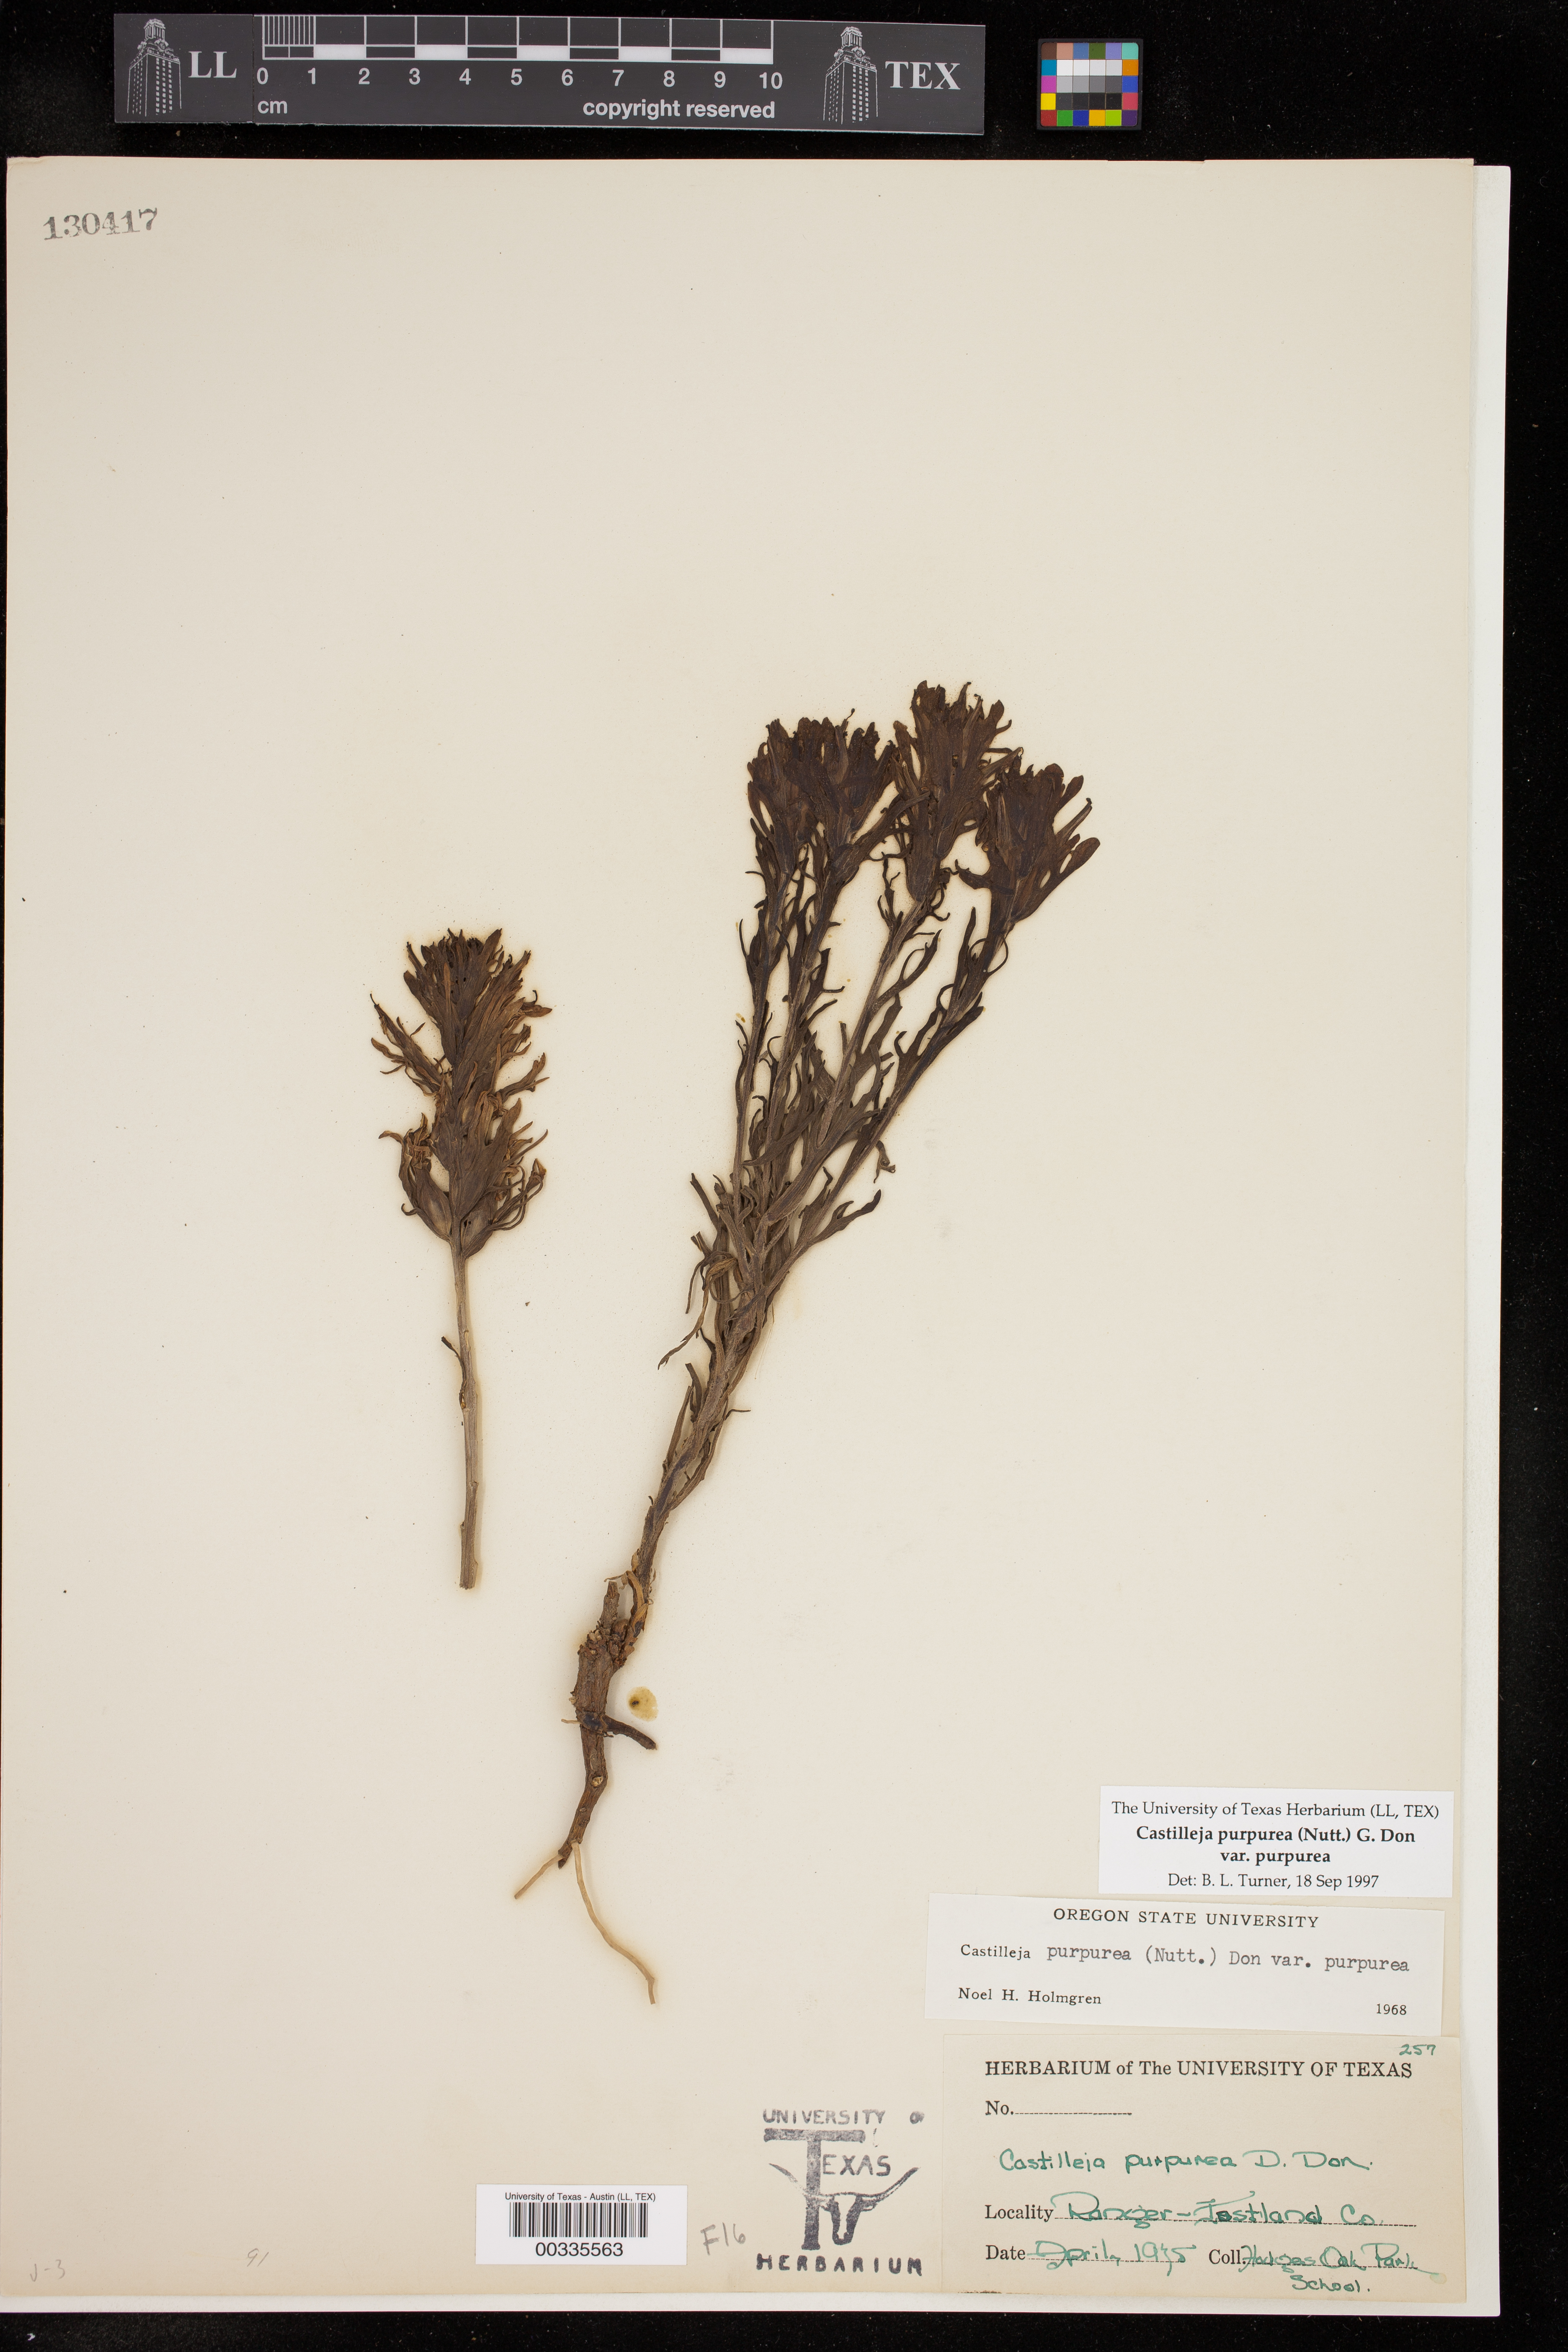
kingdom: Plantae
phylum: Tracheophyta
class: Magnoliopsida
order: Lamiales
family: Orobanchaceae
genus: Castilleja
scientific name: Castilleja purpurea
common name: Plains paintbrush
